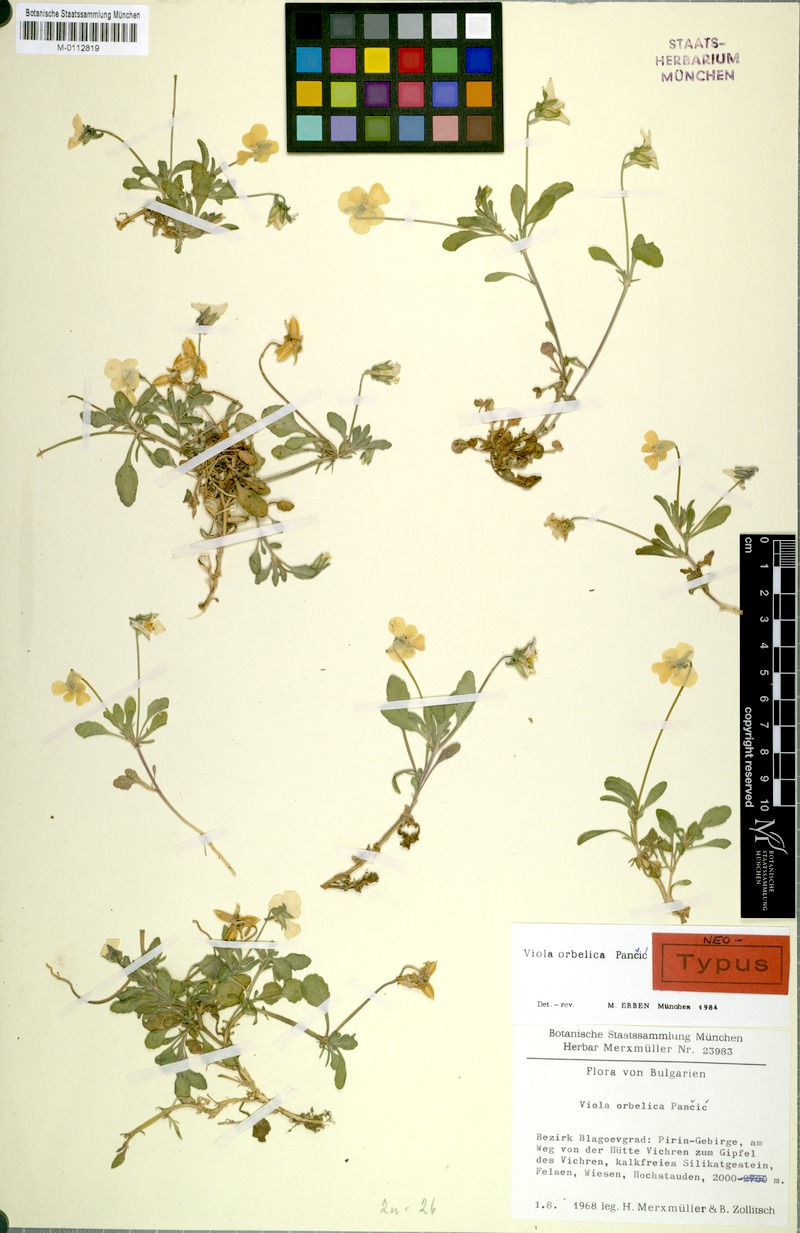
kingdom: Plantae
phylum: Tracheophyta
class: Magnoliopsida
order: Malpighiales
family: Violaceae
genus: Viola
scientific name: Viola orbelica
